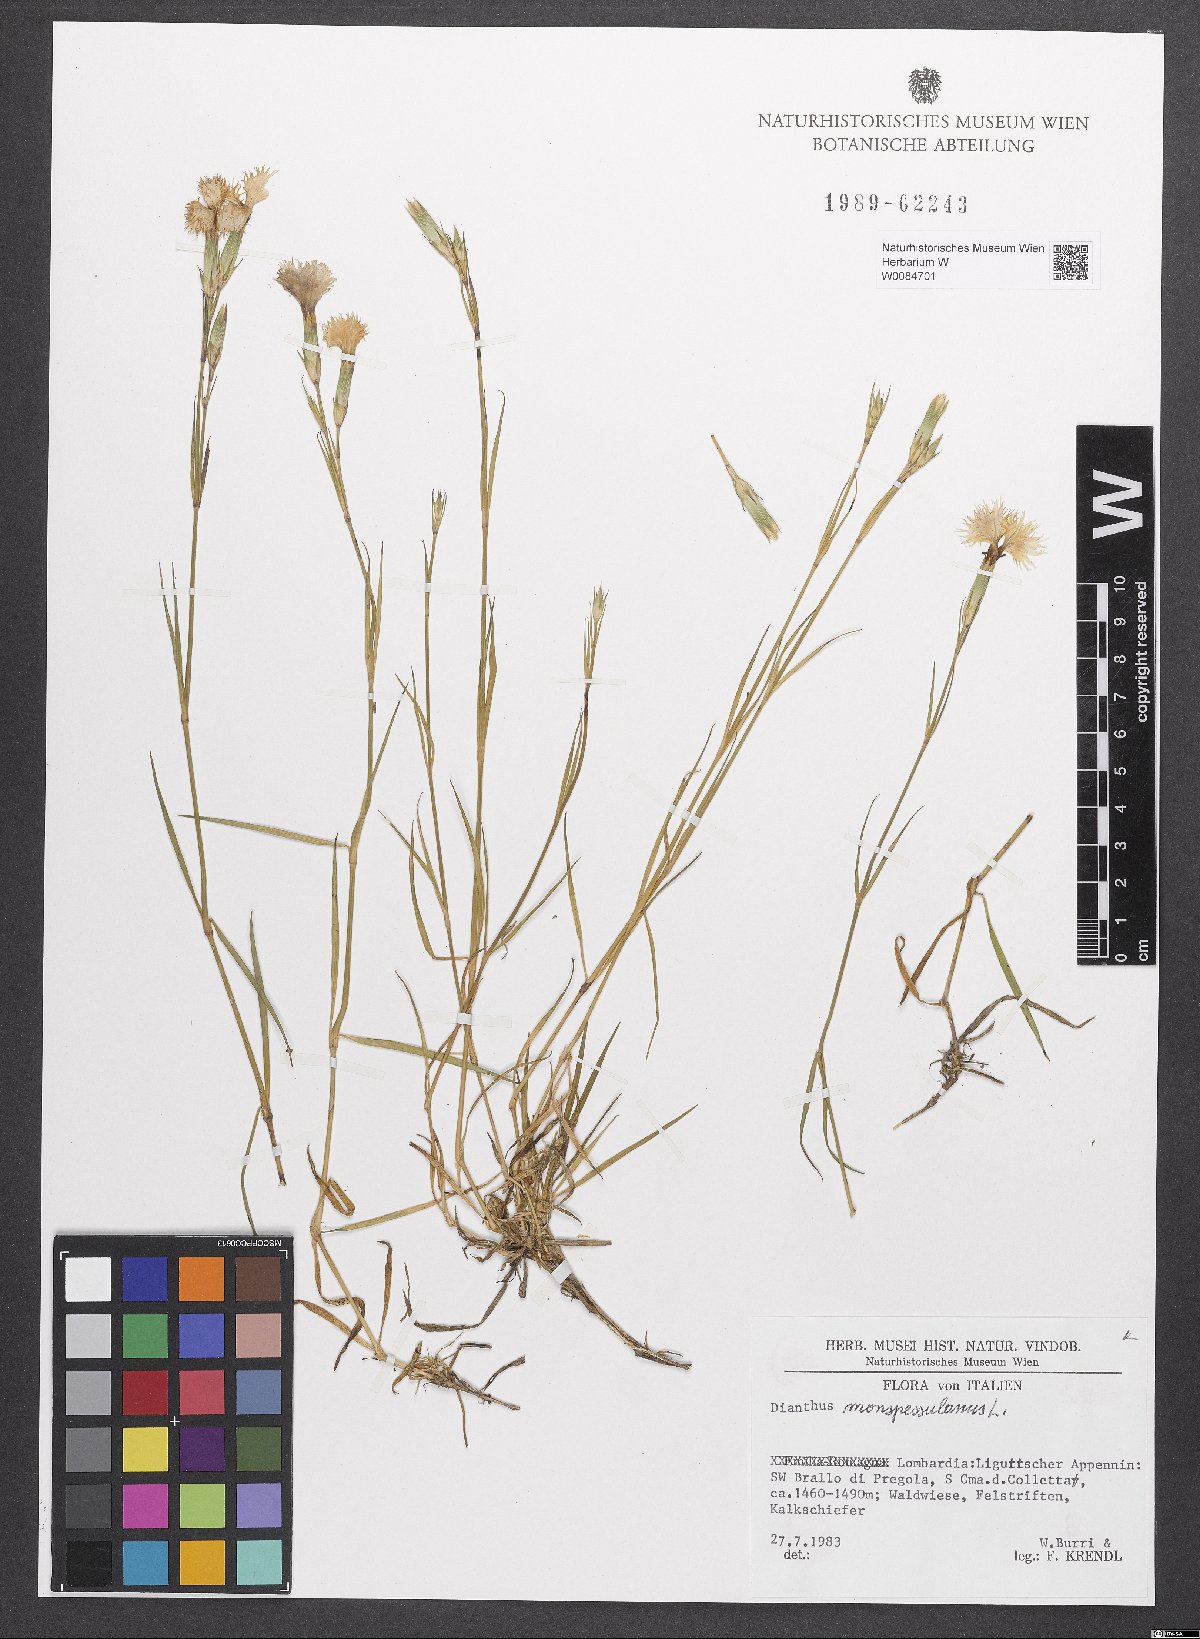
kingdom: Plantae
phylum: Tracheophyta
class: Magnoliopsida
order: Caryophyllales
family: Caryophyllaceae
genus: Dianthus
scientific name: Dianthus hyssopifolius
